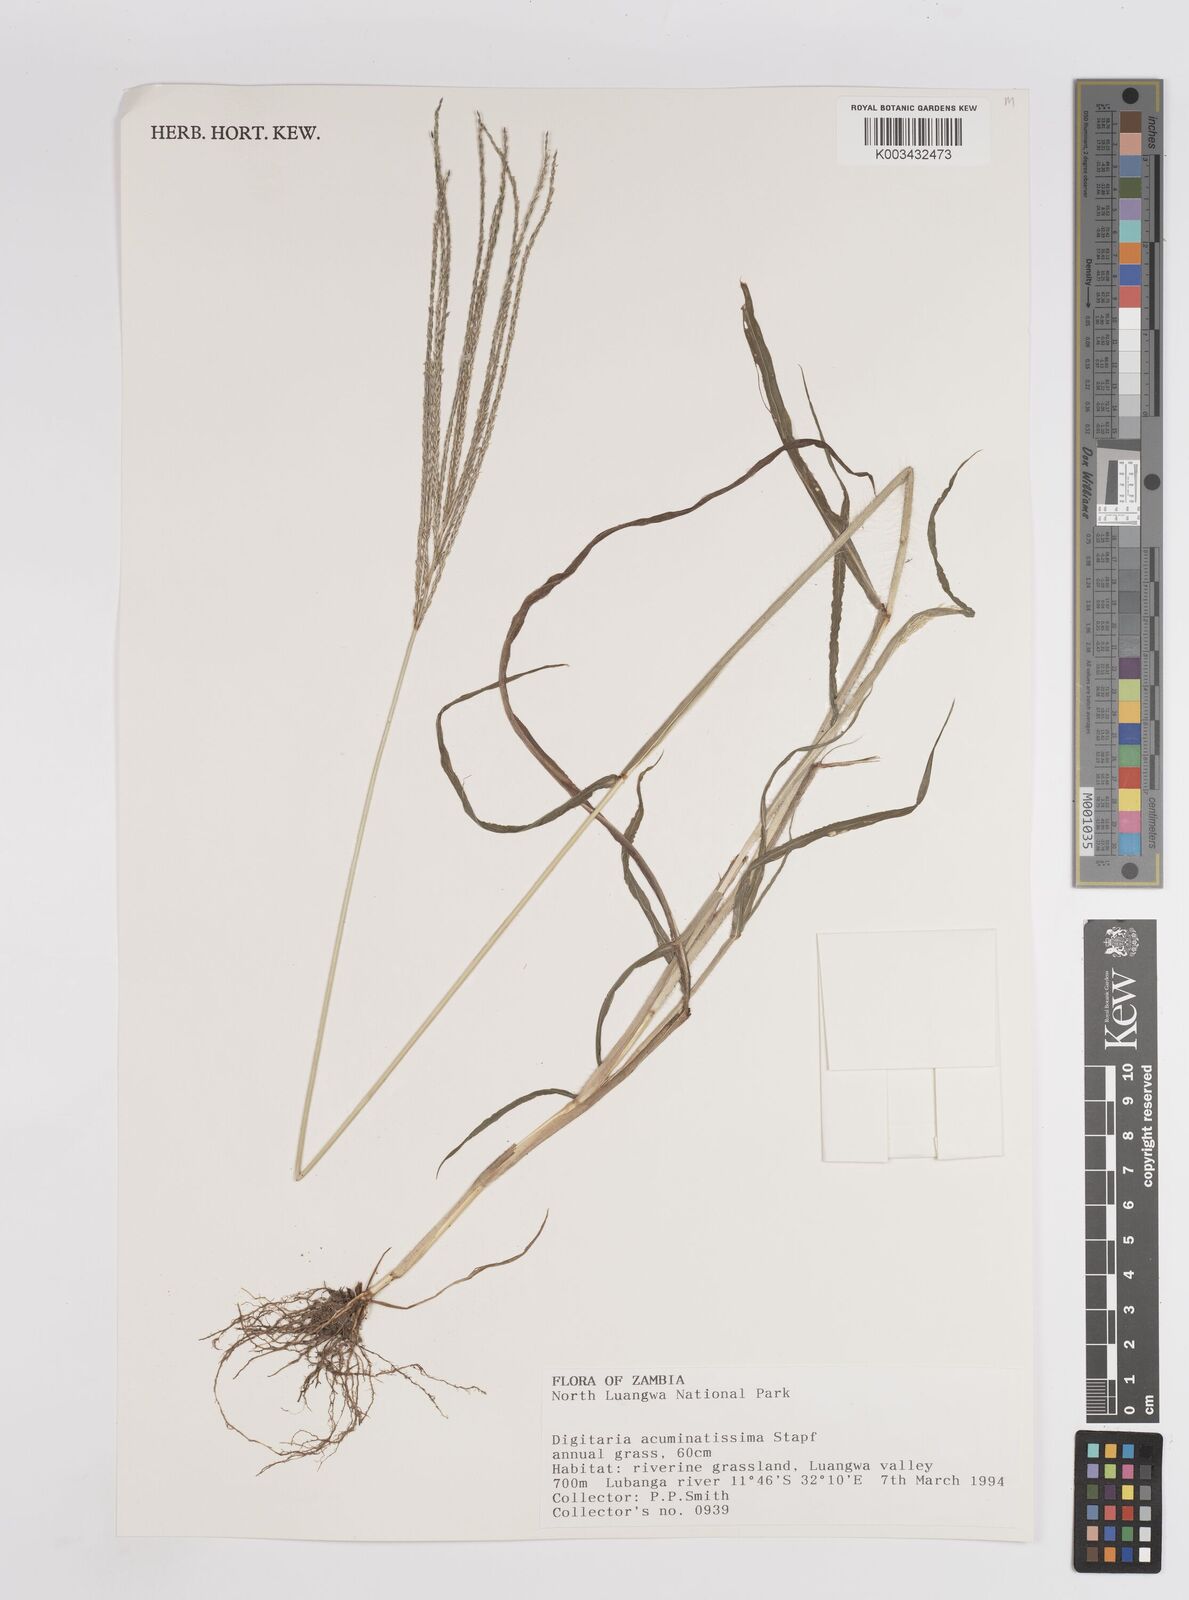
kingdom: Plantae
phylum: Tracheophyta
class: Liliopsida
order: Poales
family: Poaceae
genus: Digitaria
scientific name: Digitaria acuminatissima
